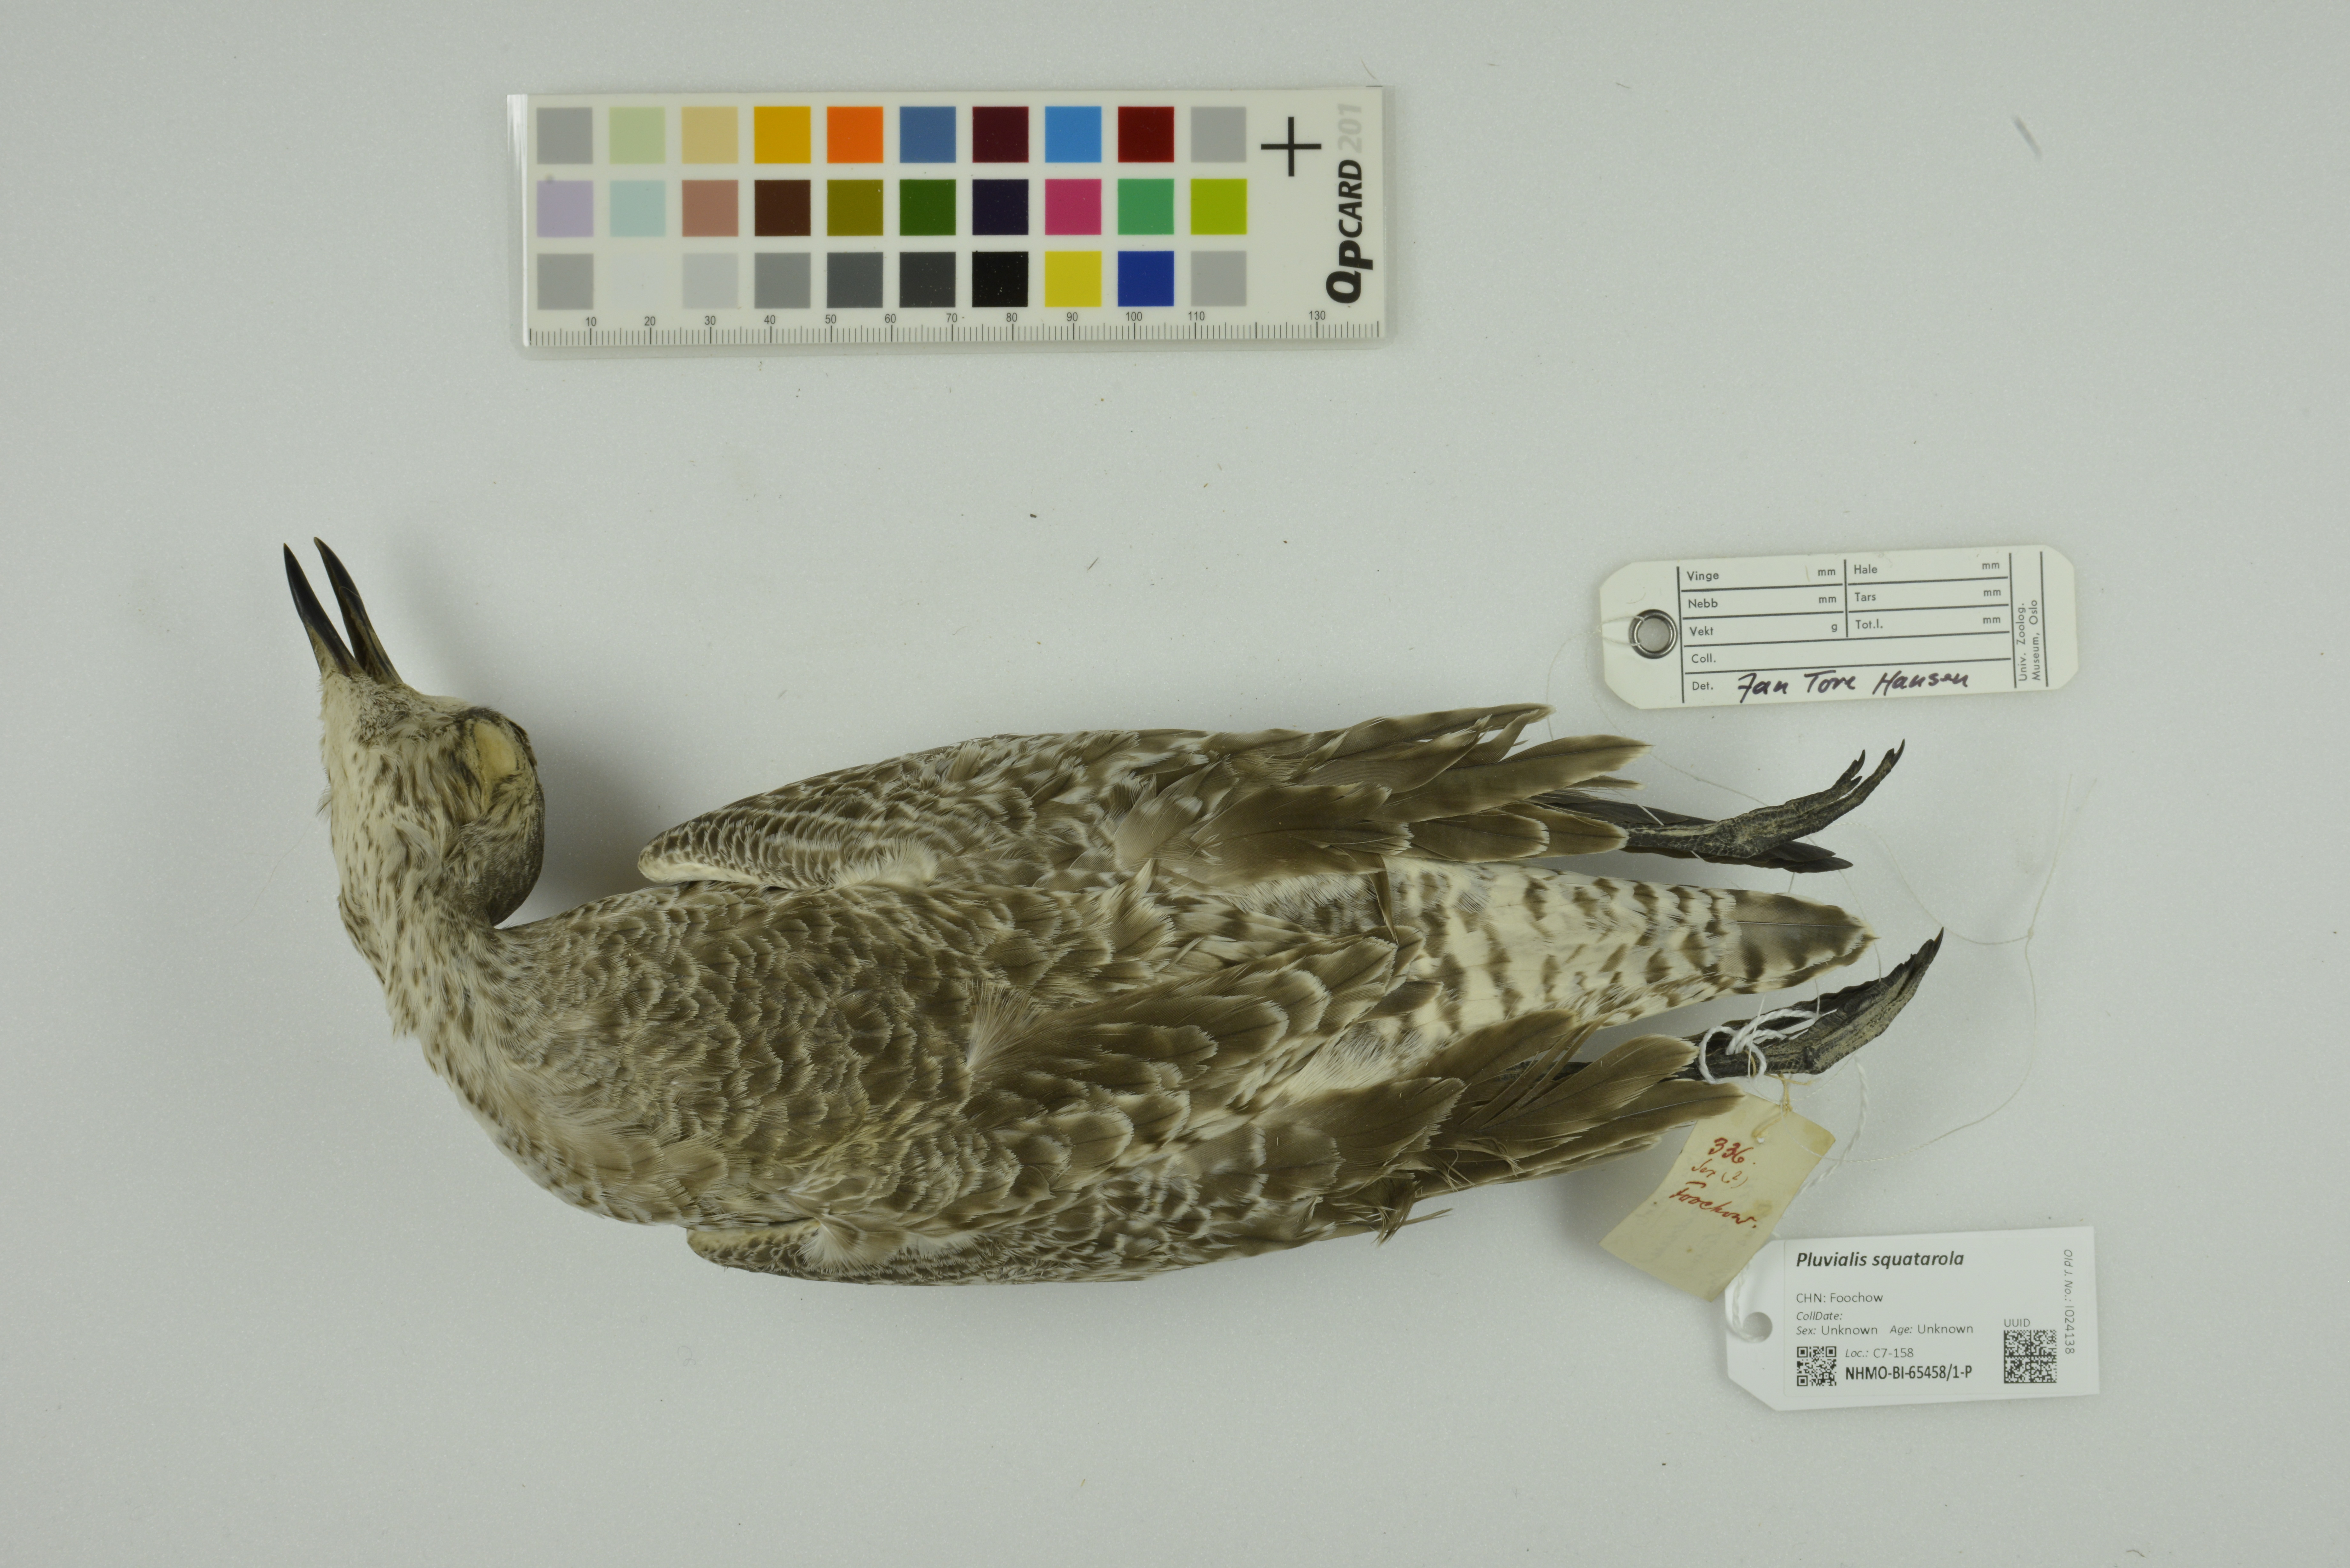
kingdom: Animalia
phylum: Chordata
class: Aves
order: Charadriiformes
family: Charadriidae
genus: Pluvialis
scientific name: Pluvialis squatarola
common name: Grey plover
